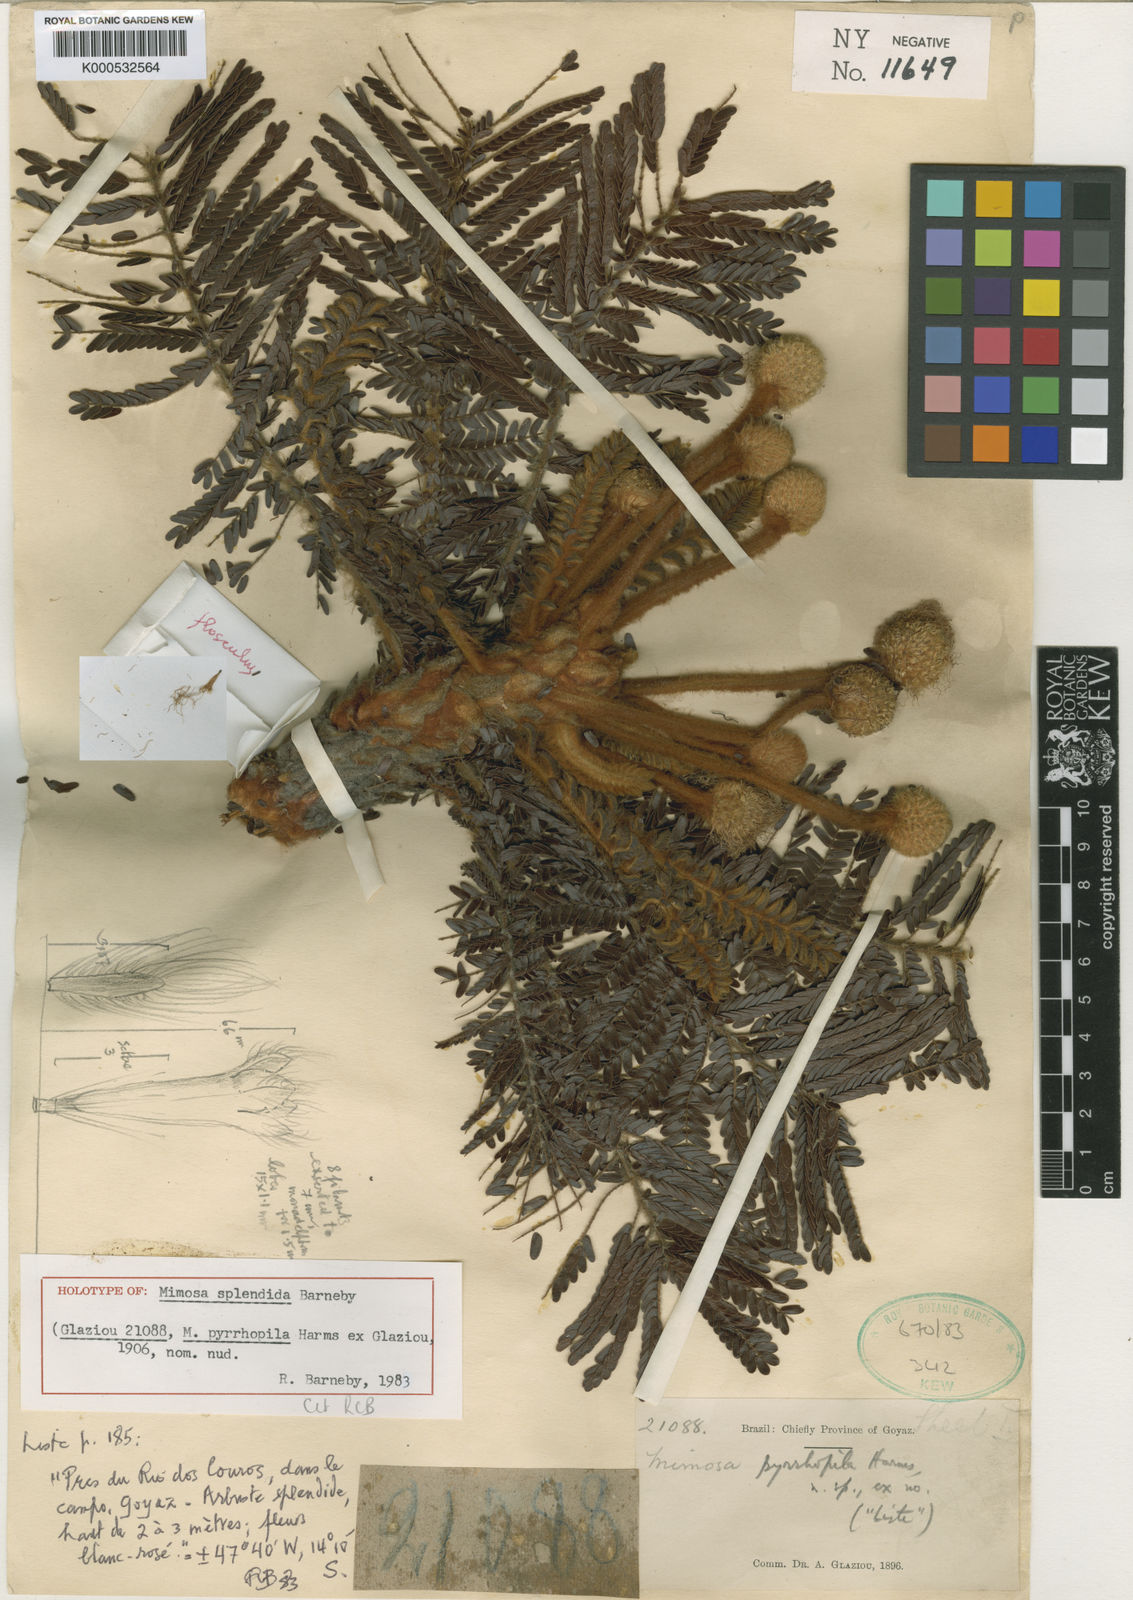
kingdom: Plantae
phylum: Tracheophyta
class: Magnoliopsida
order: Fabales
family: Fabaceae
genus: Mimosa
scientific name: Mimosa splendida
